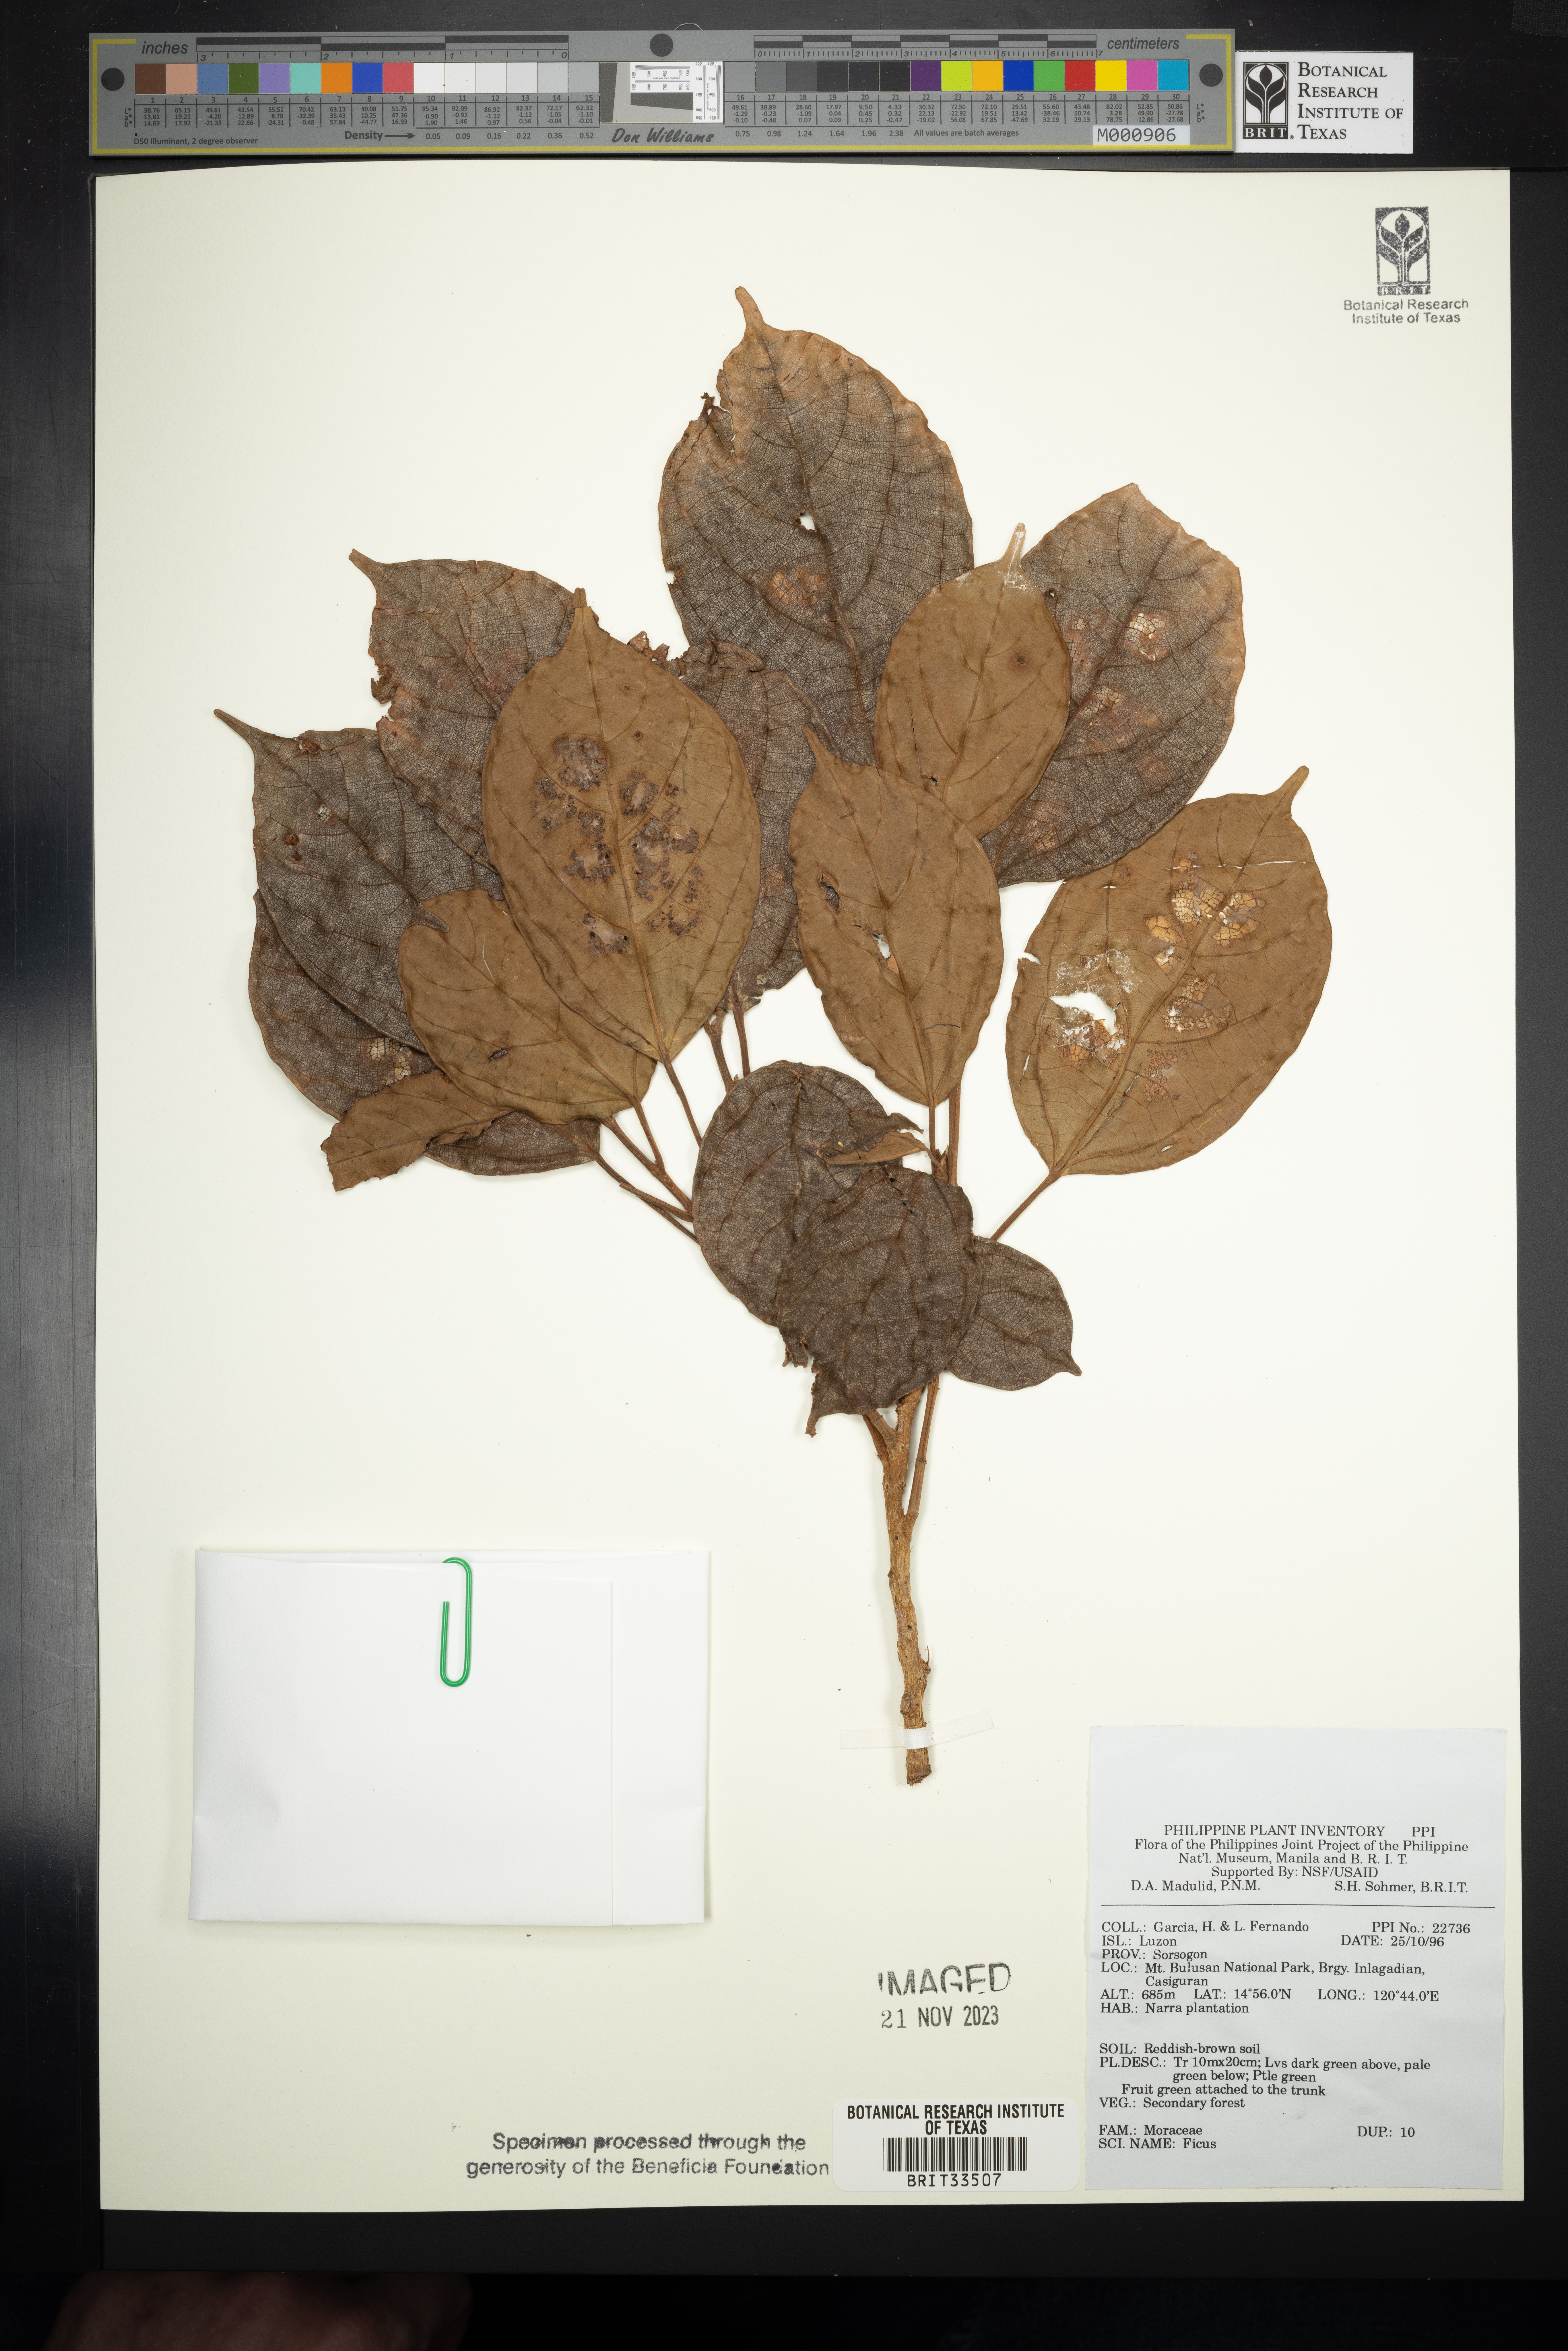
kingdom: Plantae
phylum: Tracheophyta
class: Magnoliopsida
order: Rosales
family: Moraceae
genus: Ficus
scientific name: Ficus
